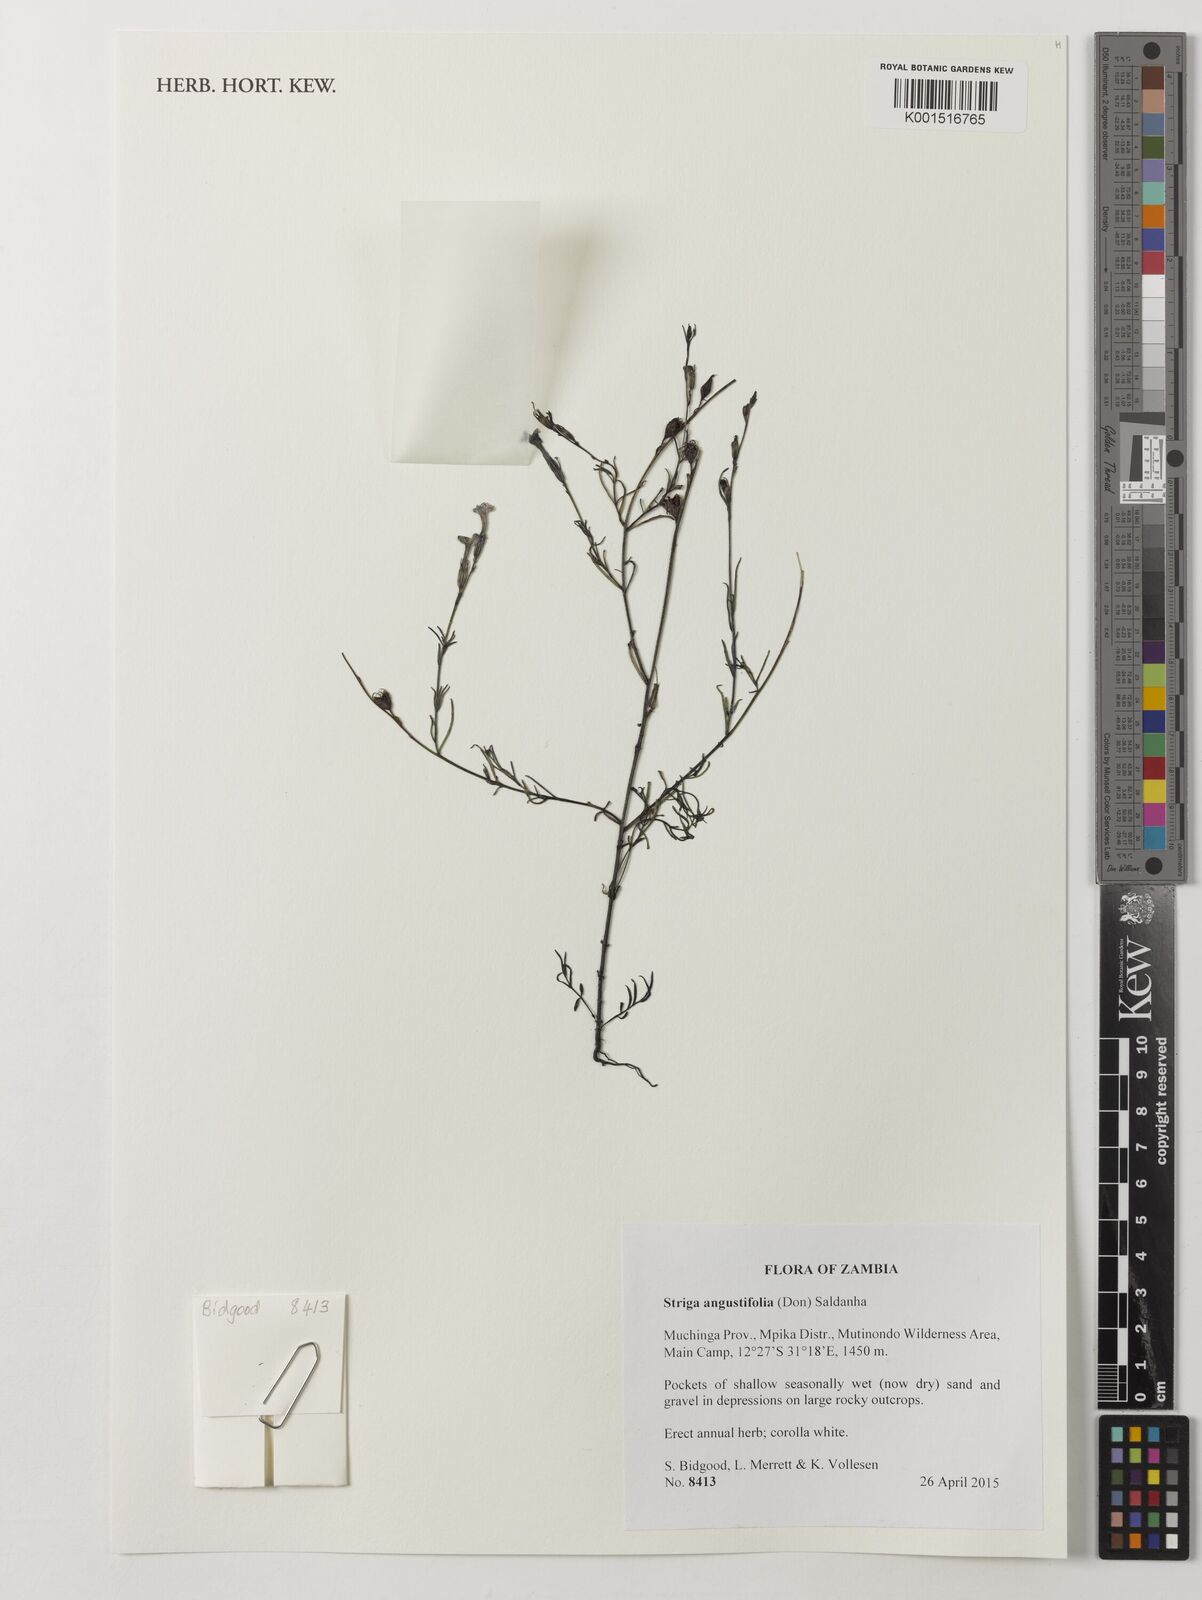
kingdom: Plantae
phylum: Tracheophyta
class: Magnoliopsida
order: Lamiales
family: Orobanchaceae
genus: Striga
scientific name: Striga angustifolia
